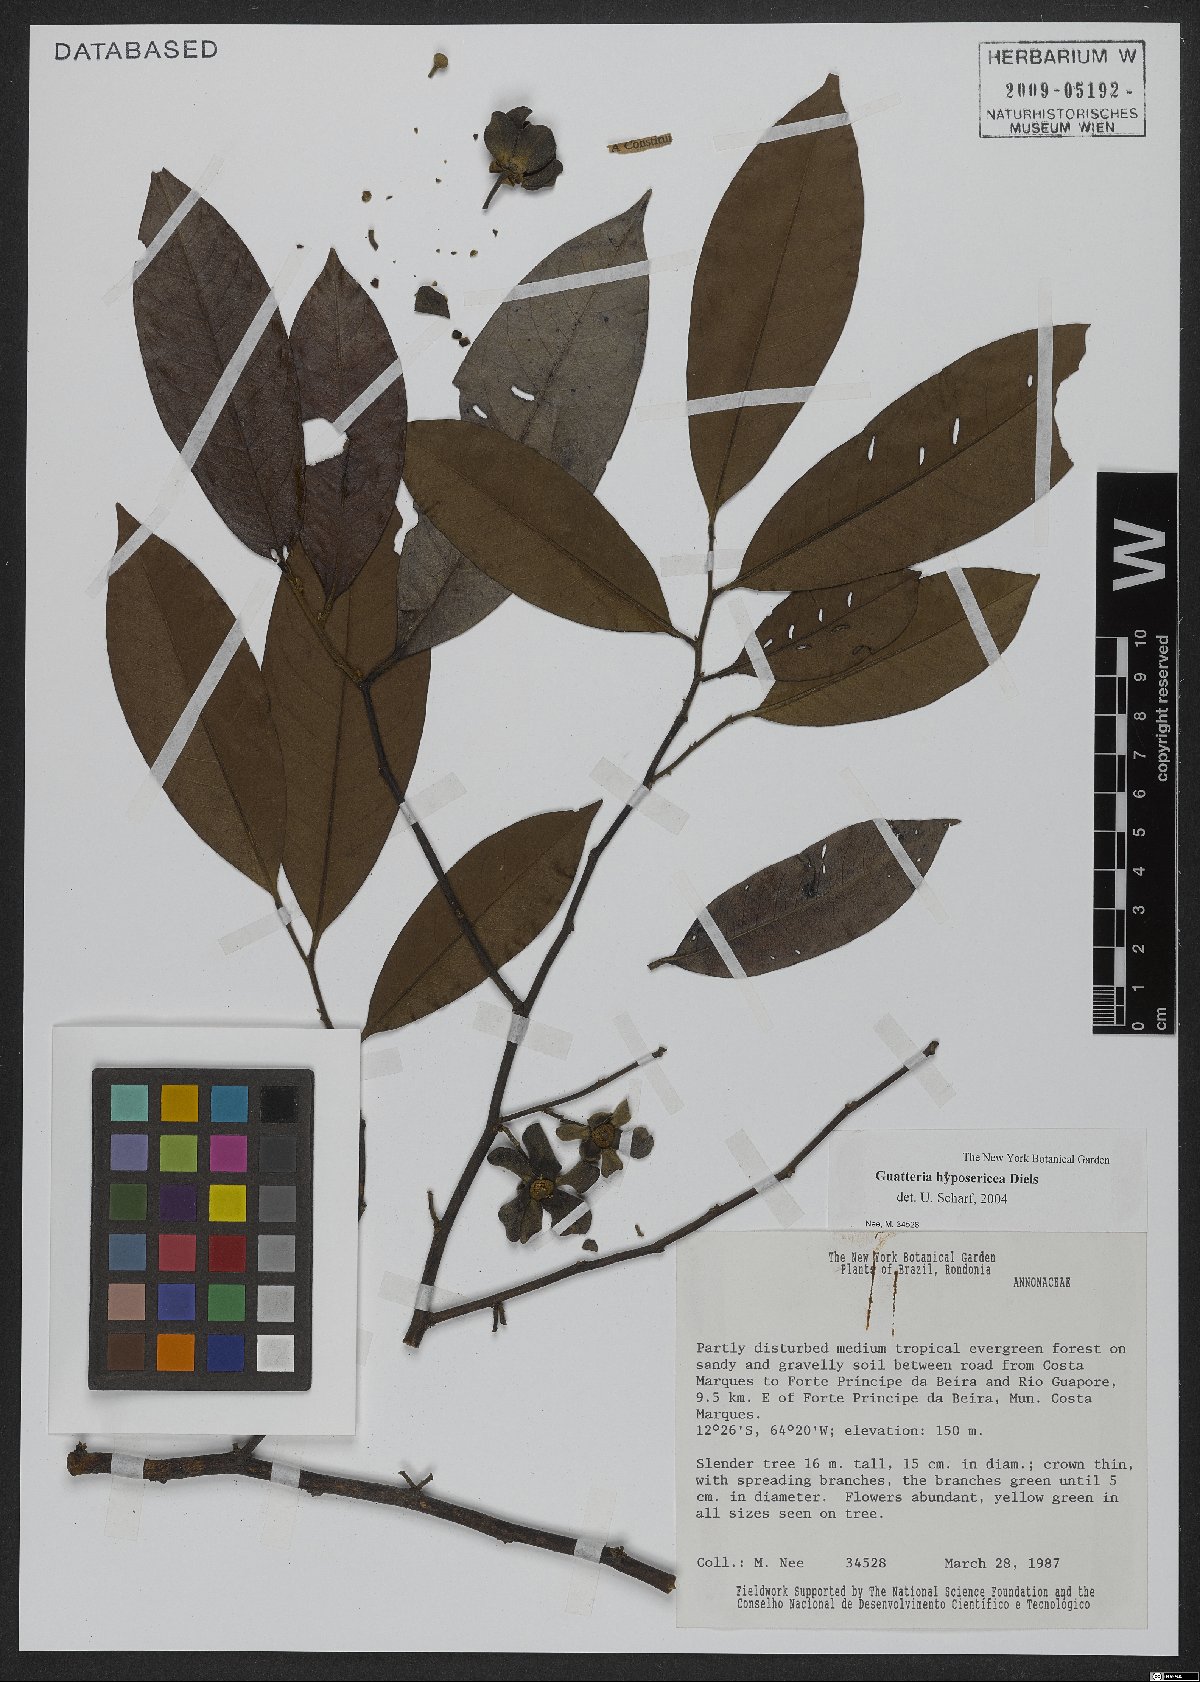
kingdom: Plantae
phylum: Tracheophyta
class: Magnoliopsida
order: Magnoliales
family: Annonaceae
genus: Guatteria
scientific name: Guatteria hyposericea
